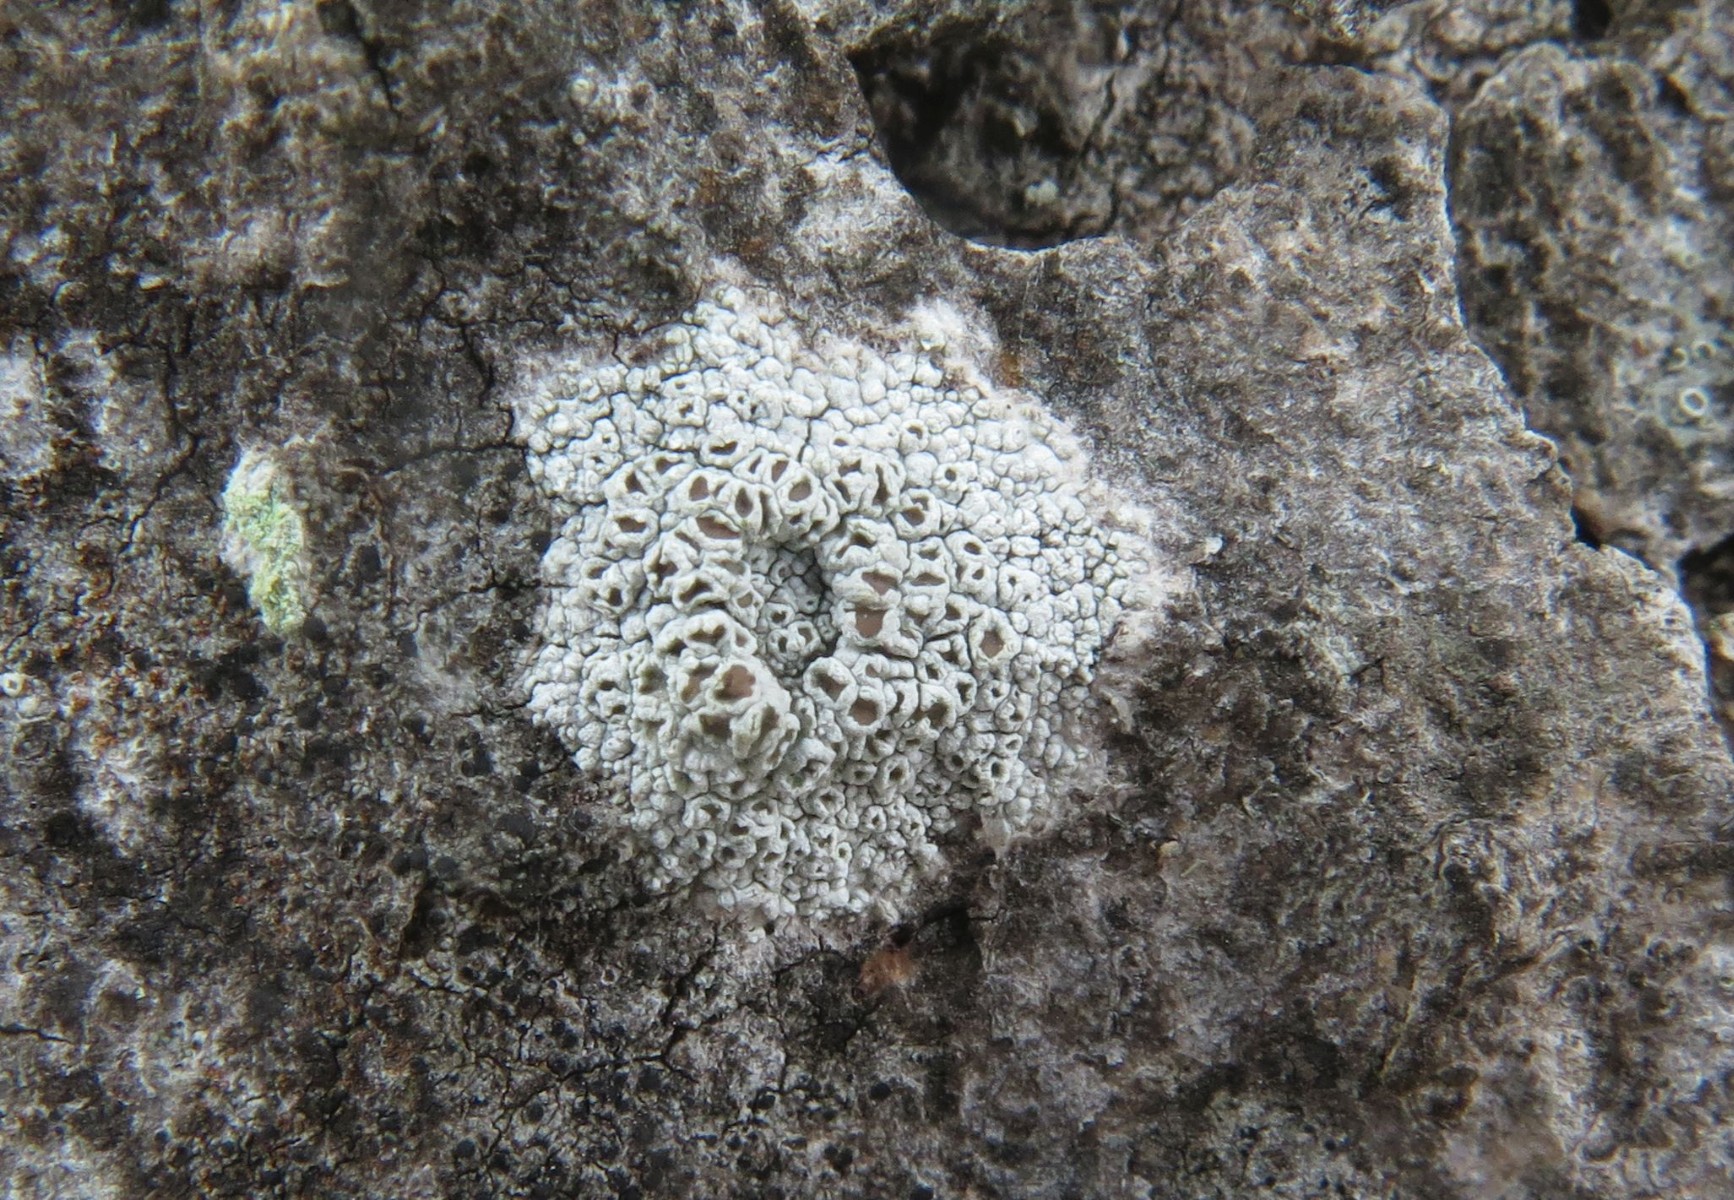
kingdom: Fungi
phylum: Ascomycota
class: Lecanoromycetes
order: Lecanorales
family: Lecanoraceae
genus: Lecanora
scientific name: Lecanora chlarotera
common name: brun kantskivelav
